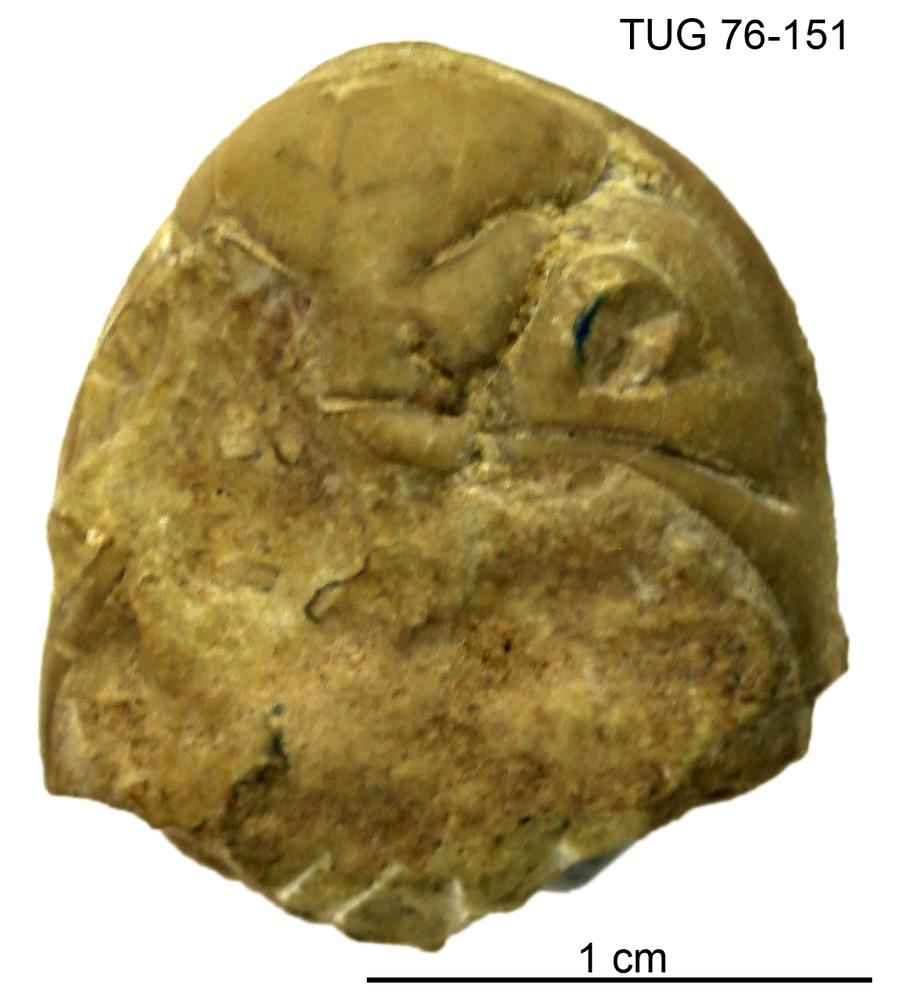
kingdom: Animalia
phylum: Arthropoda
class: Trilobita
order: Phacopida
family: Pterygometopidae
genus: Toxochasmops
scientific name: Toxochasmops inge
